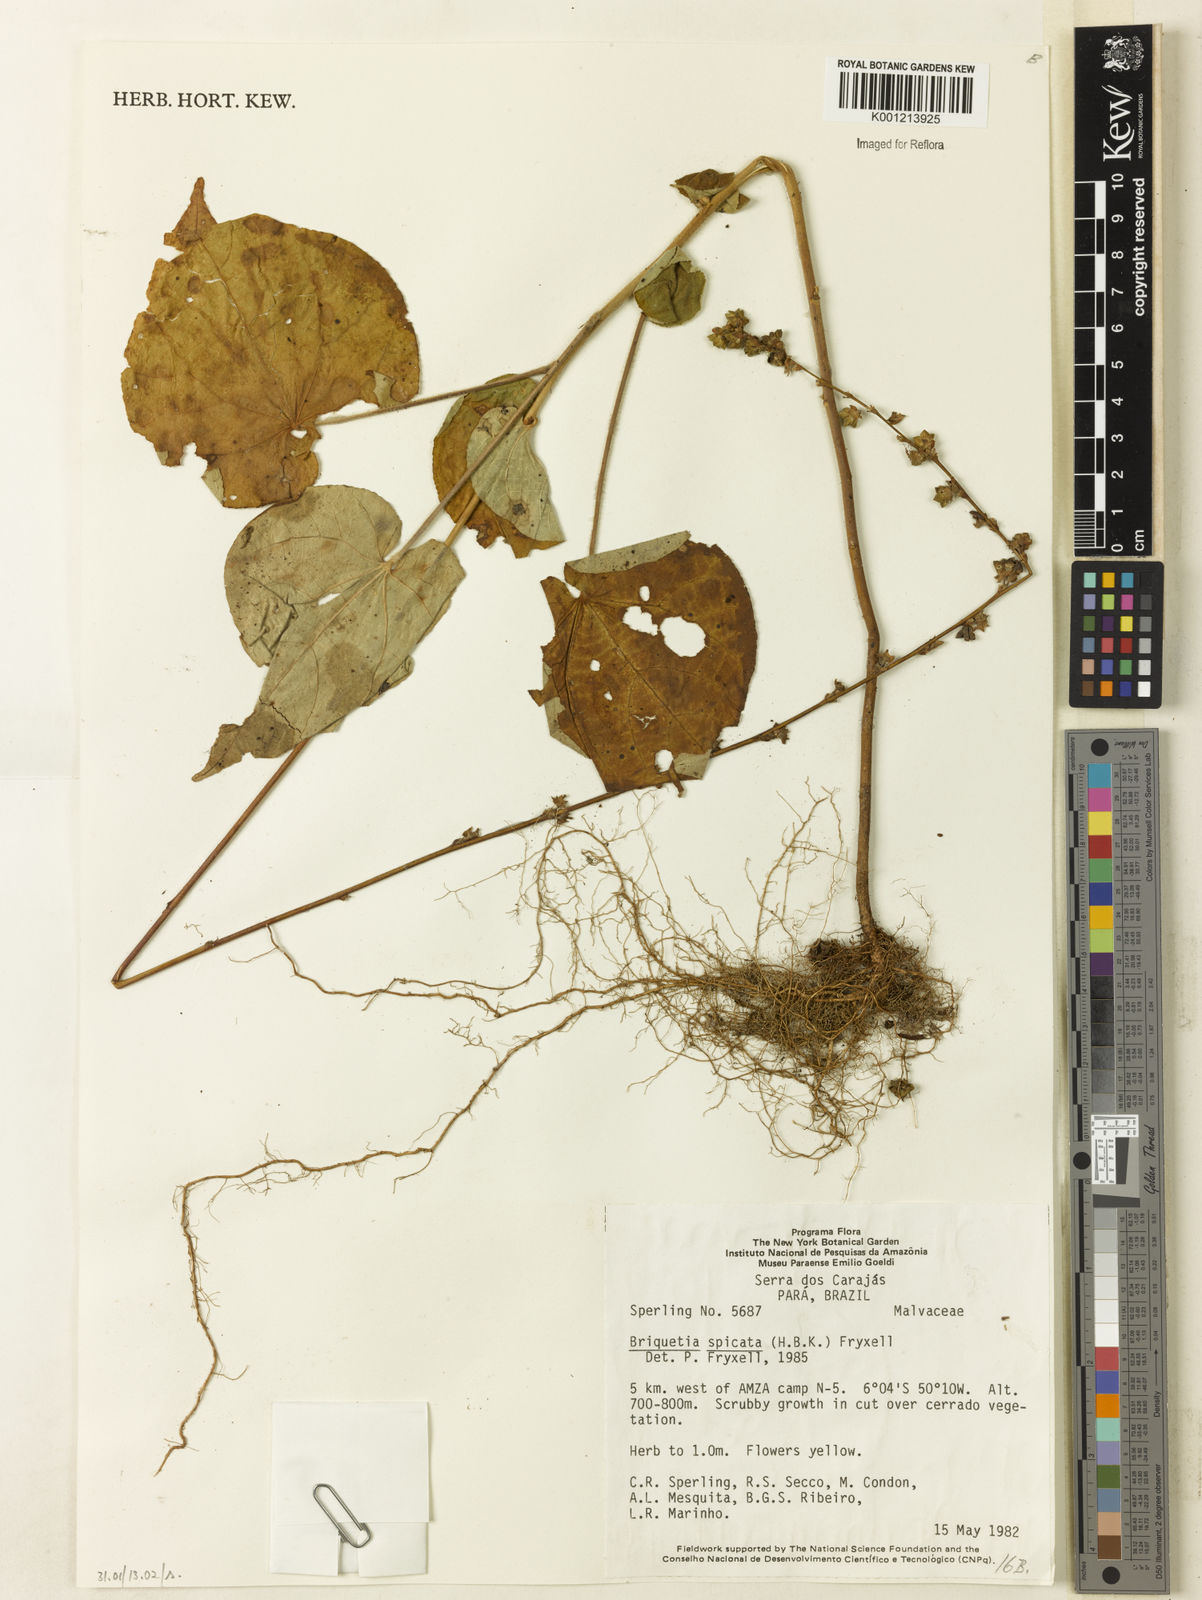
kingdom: Plantae
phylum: Tracheophyta
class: Magnoliopsida
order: Malvales
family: Malvaceae
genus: Allobriquetia
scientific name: Allobriquetia spicata
